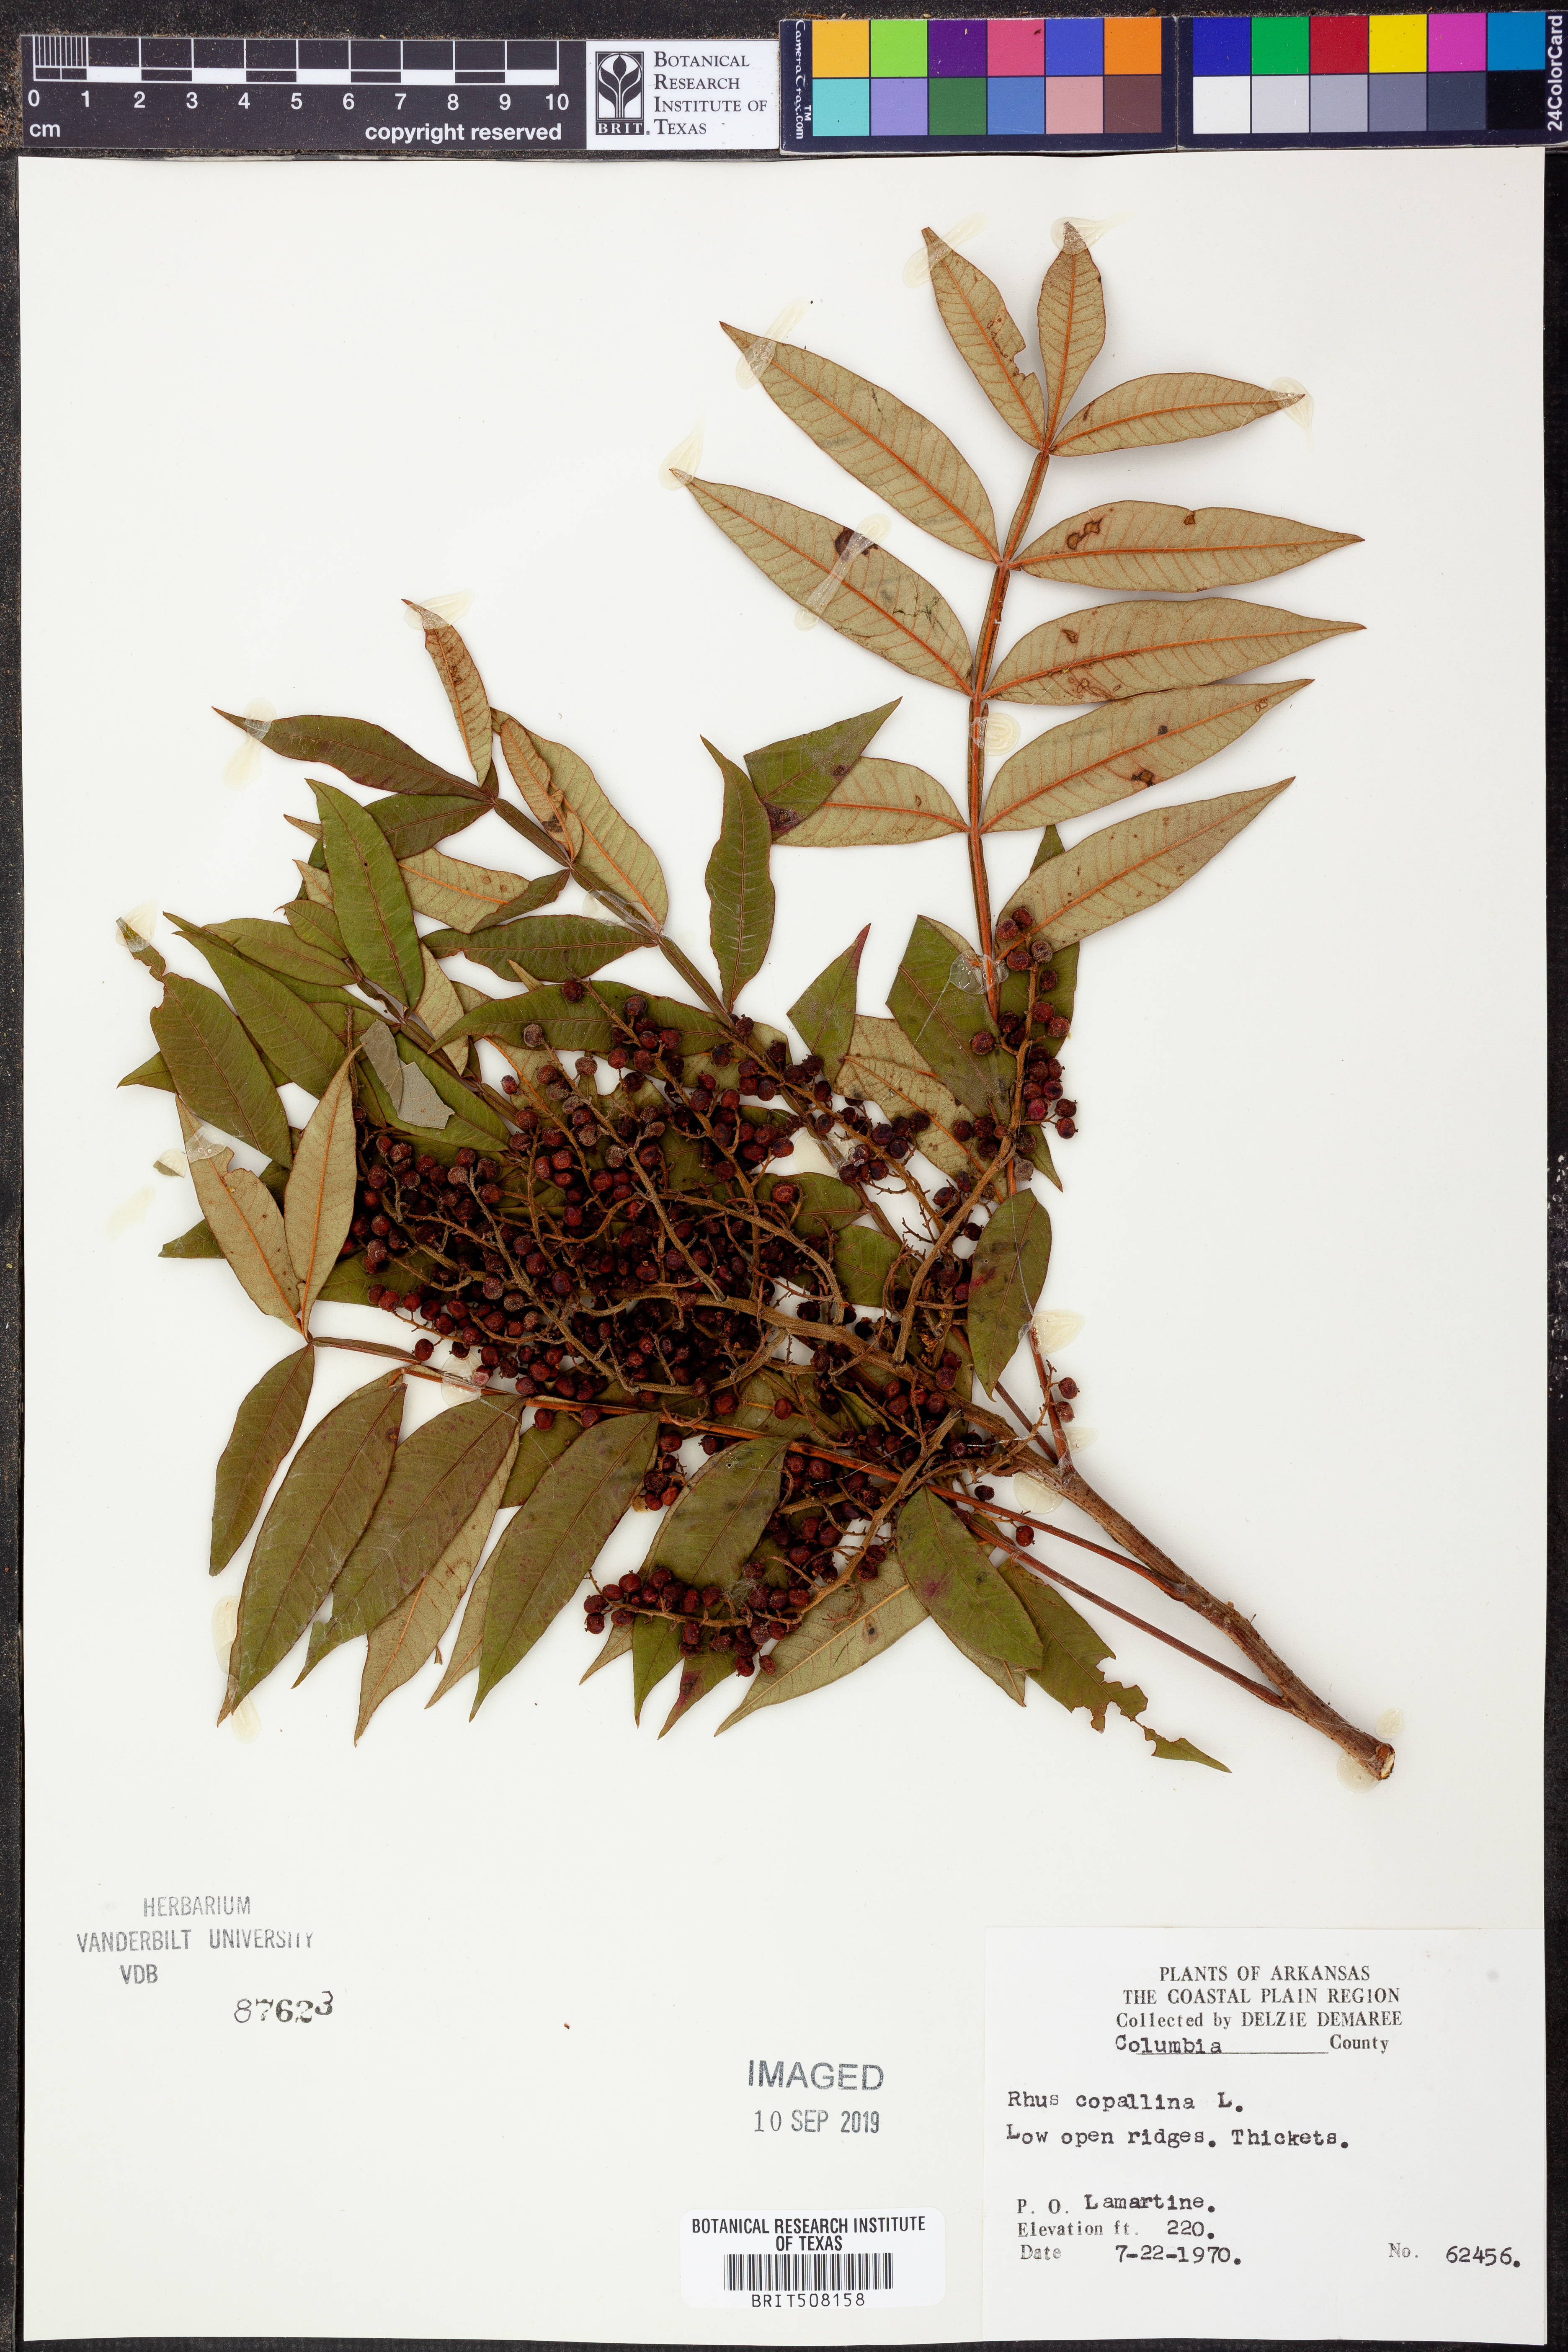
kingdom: Plantae
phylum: Tracheophyta
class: Magnoliopsida
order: Sapindales
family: Anacardiaceae
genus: Rhus
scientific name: Rhus copallina
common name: Shining sumac
